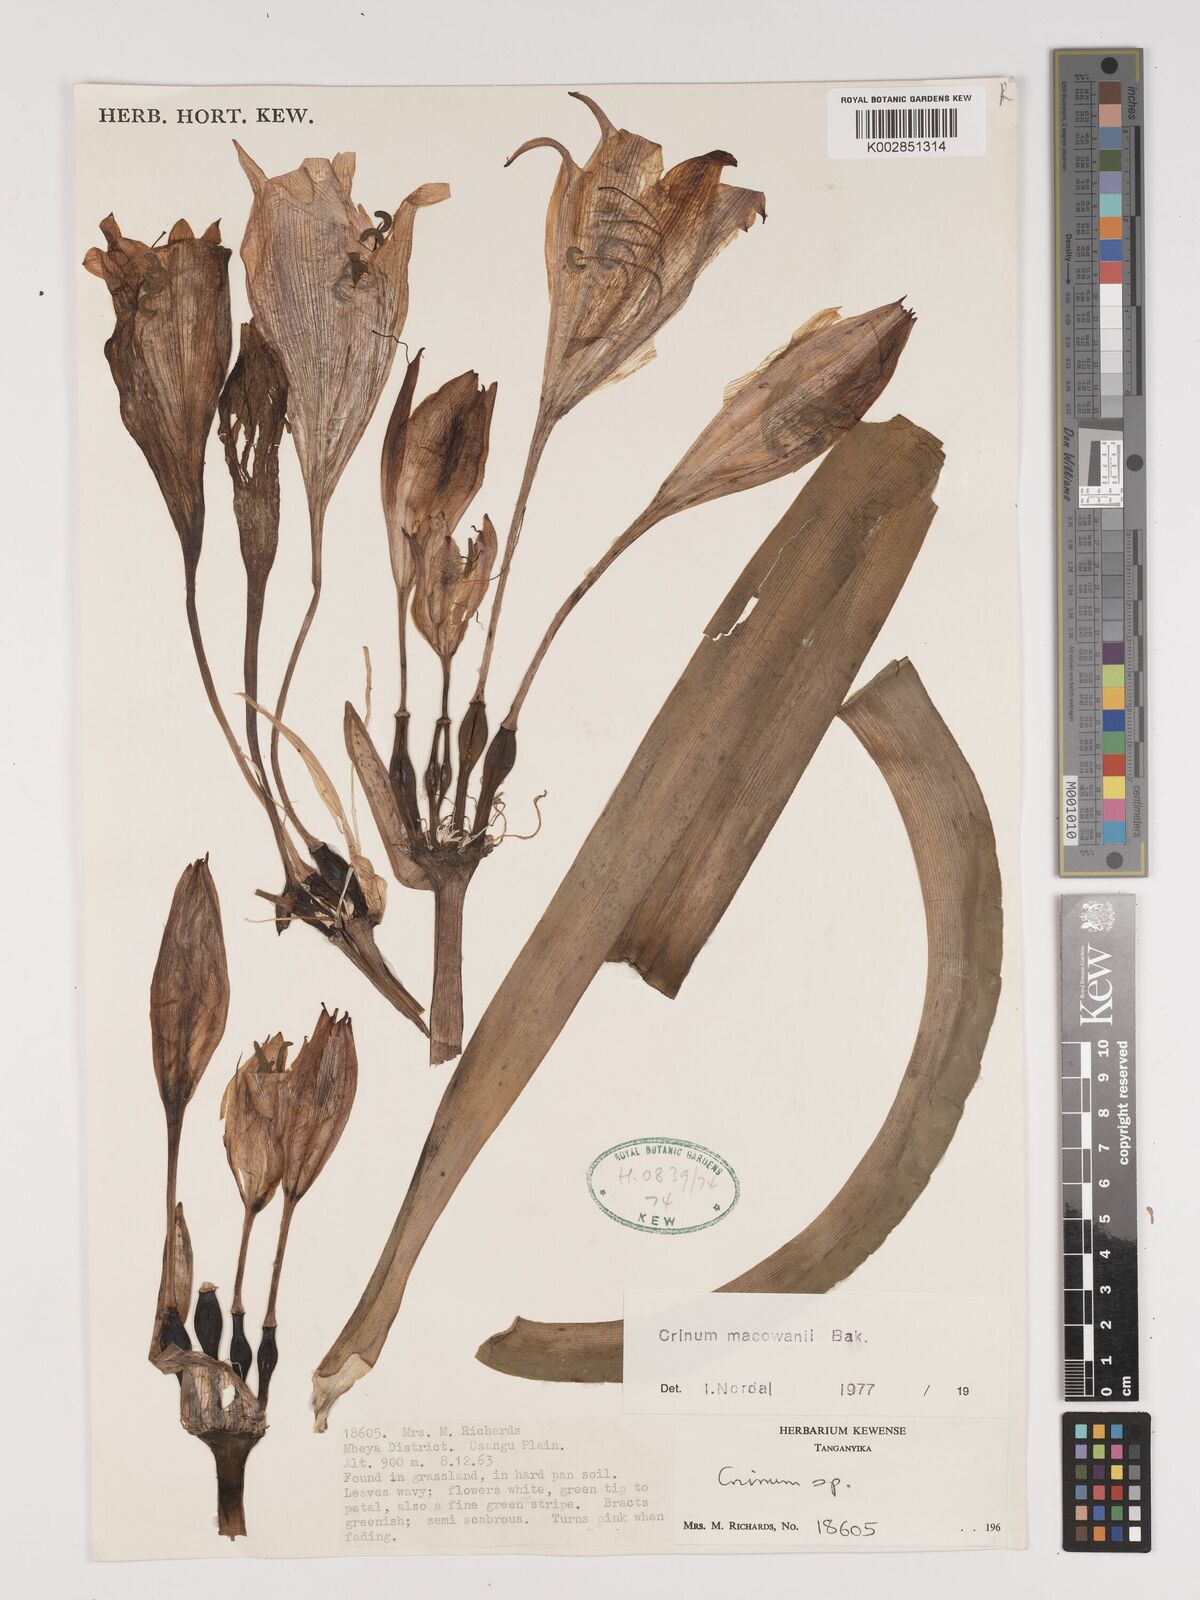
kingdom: Plantae
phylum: Tracheophyta
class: Liliopsida
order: Asparagales
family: Amaryllidaceae
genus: Crinum
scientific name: Crinum macowanii
